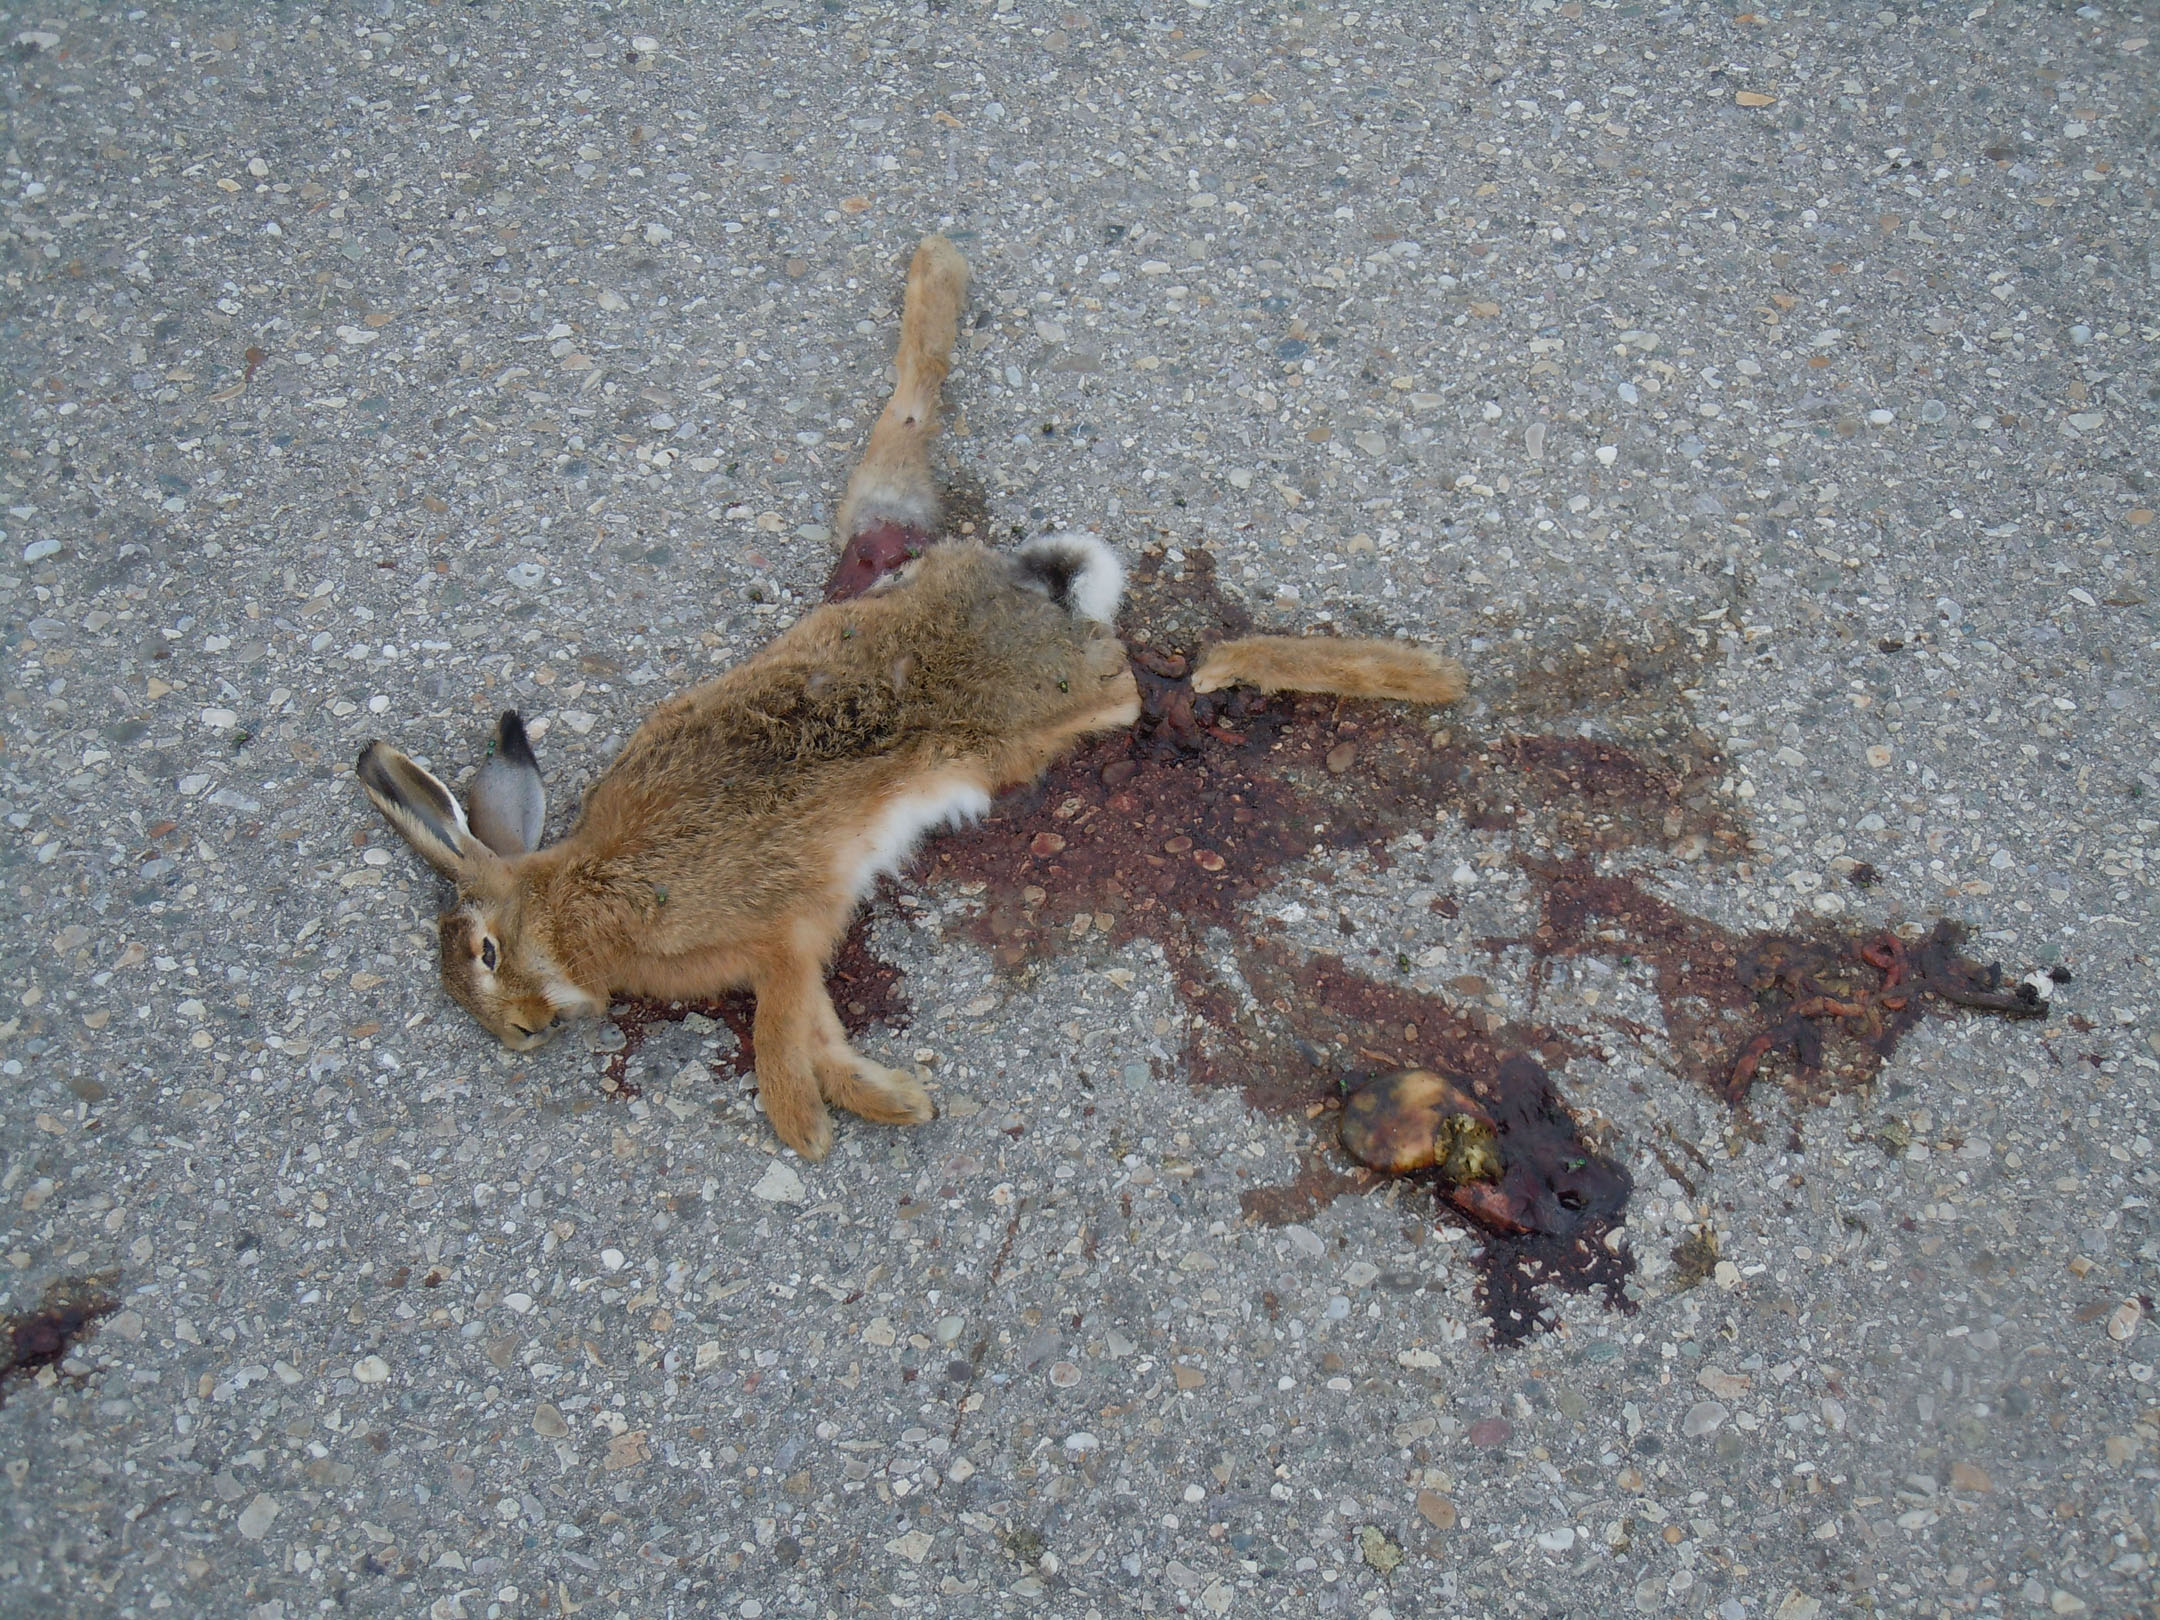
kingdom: Animalia
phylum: Chordata
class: Mammalia
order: Lagomorpha
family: Leporidae
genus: Lepus
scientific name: Lepus europaeus
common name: European hare
